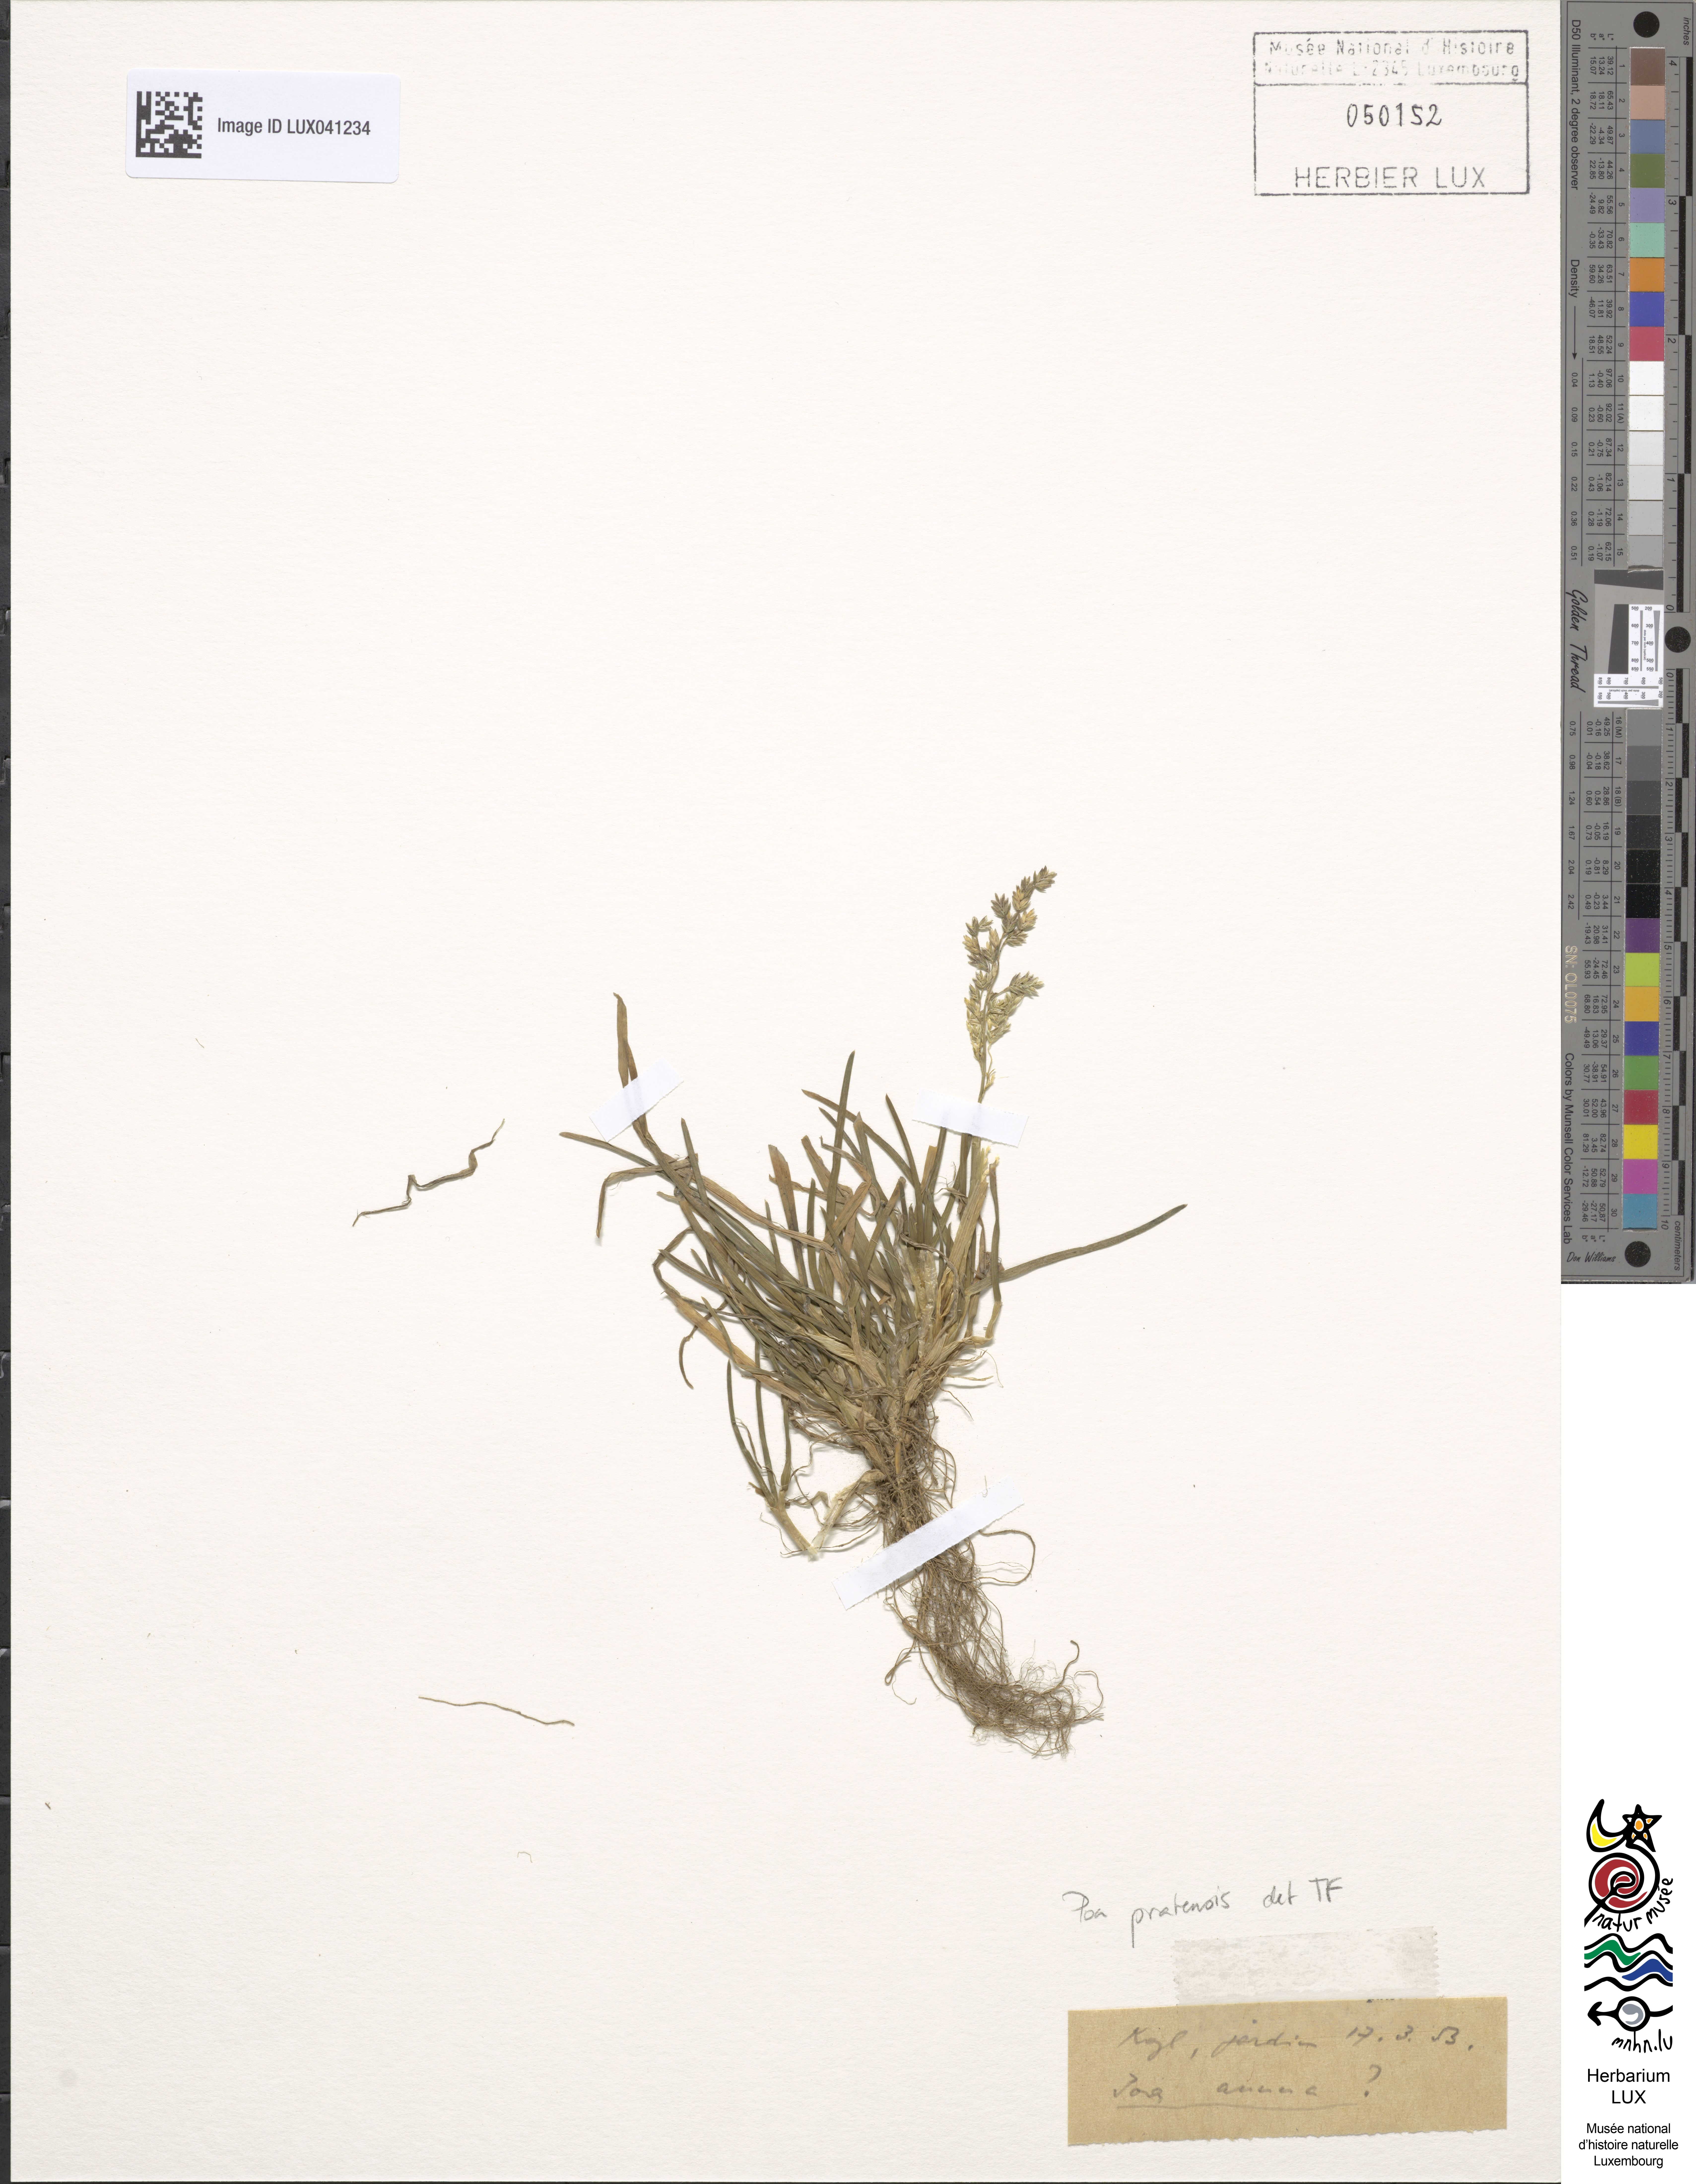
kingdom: Plantae
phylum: Tracheophyta
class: Liliopsida
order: Poales
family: Poaceae
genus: Poa
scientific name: Poa pratensis
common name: Kentucky bluegrass
